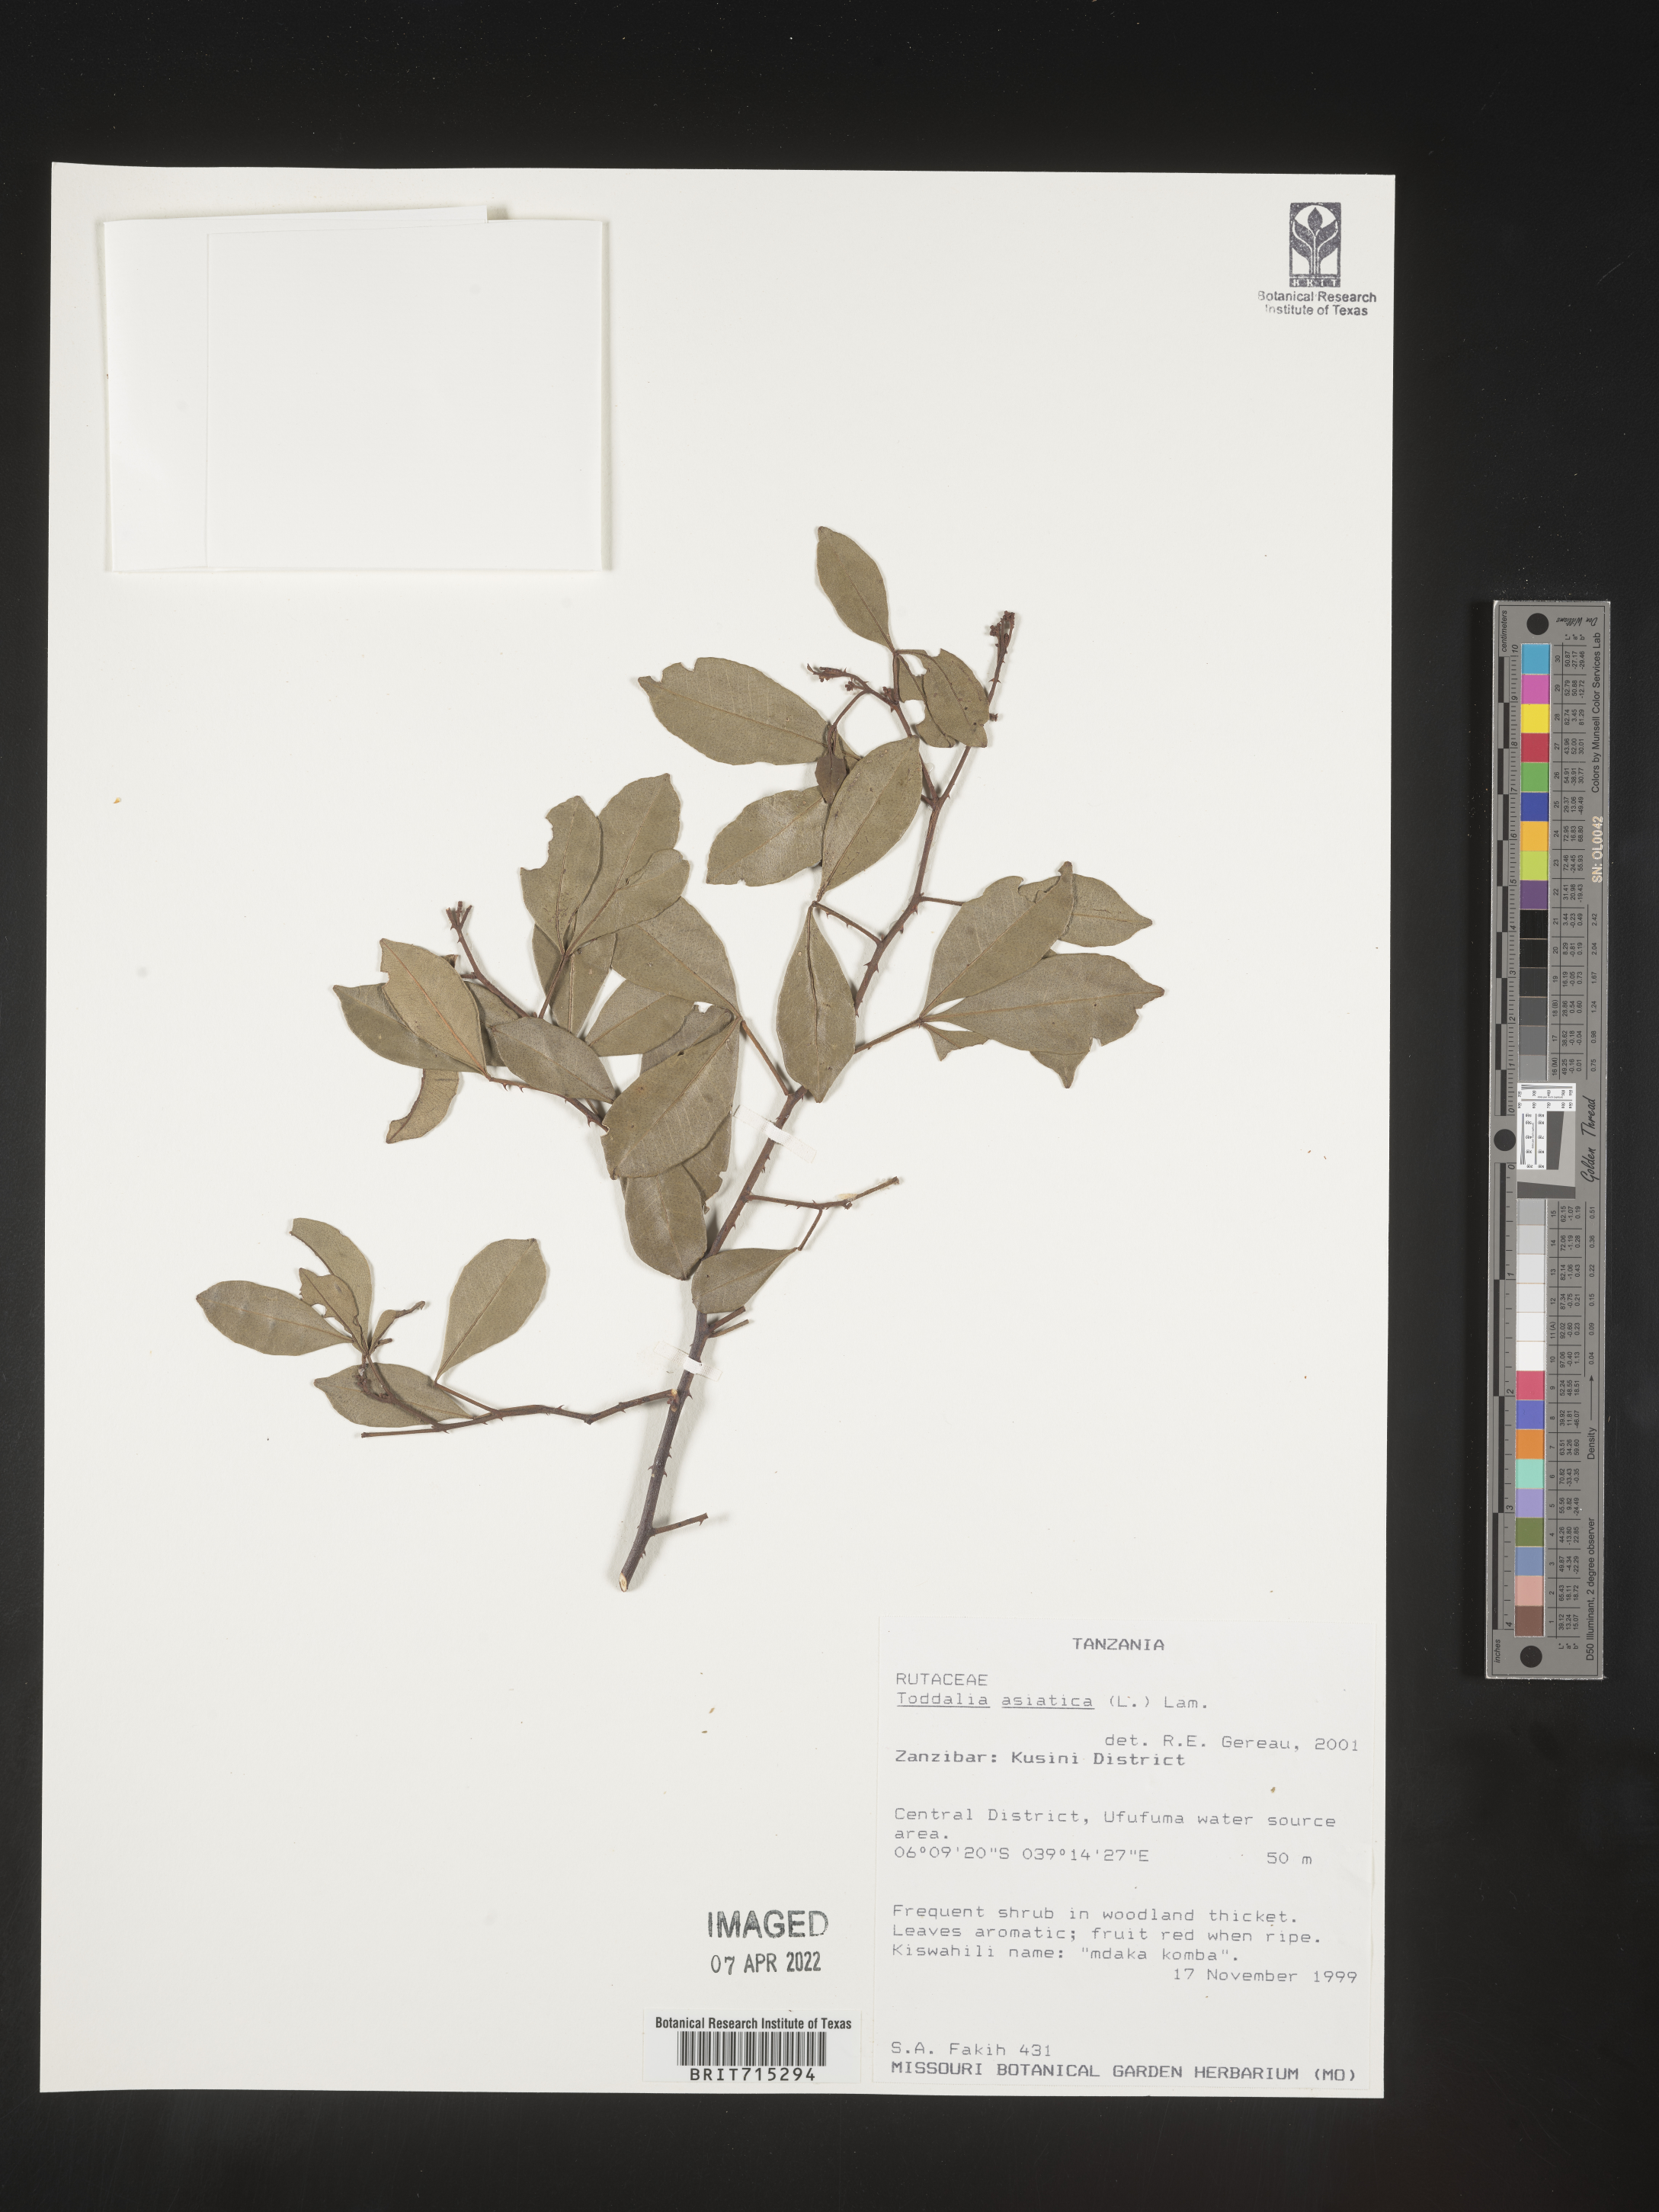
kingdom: Plantae
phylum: Tracheophyta
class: Magnoliopsida
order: Sapindales
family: Rutaceae
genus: Zanthoxylum
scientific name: Zanthoxylum
